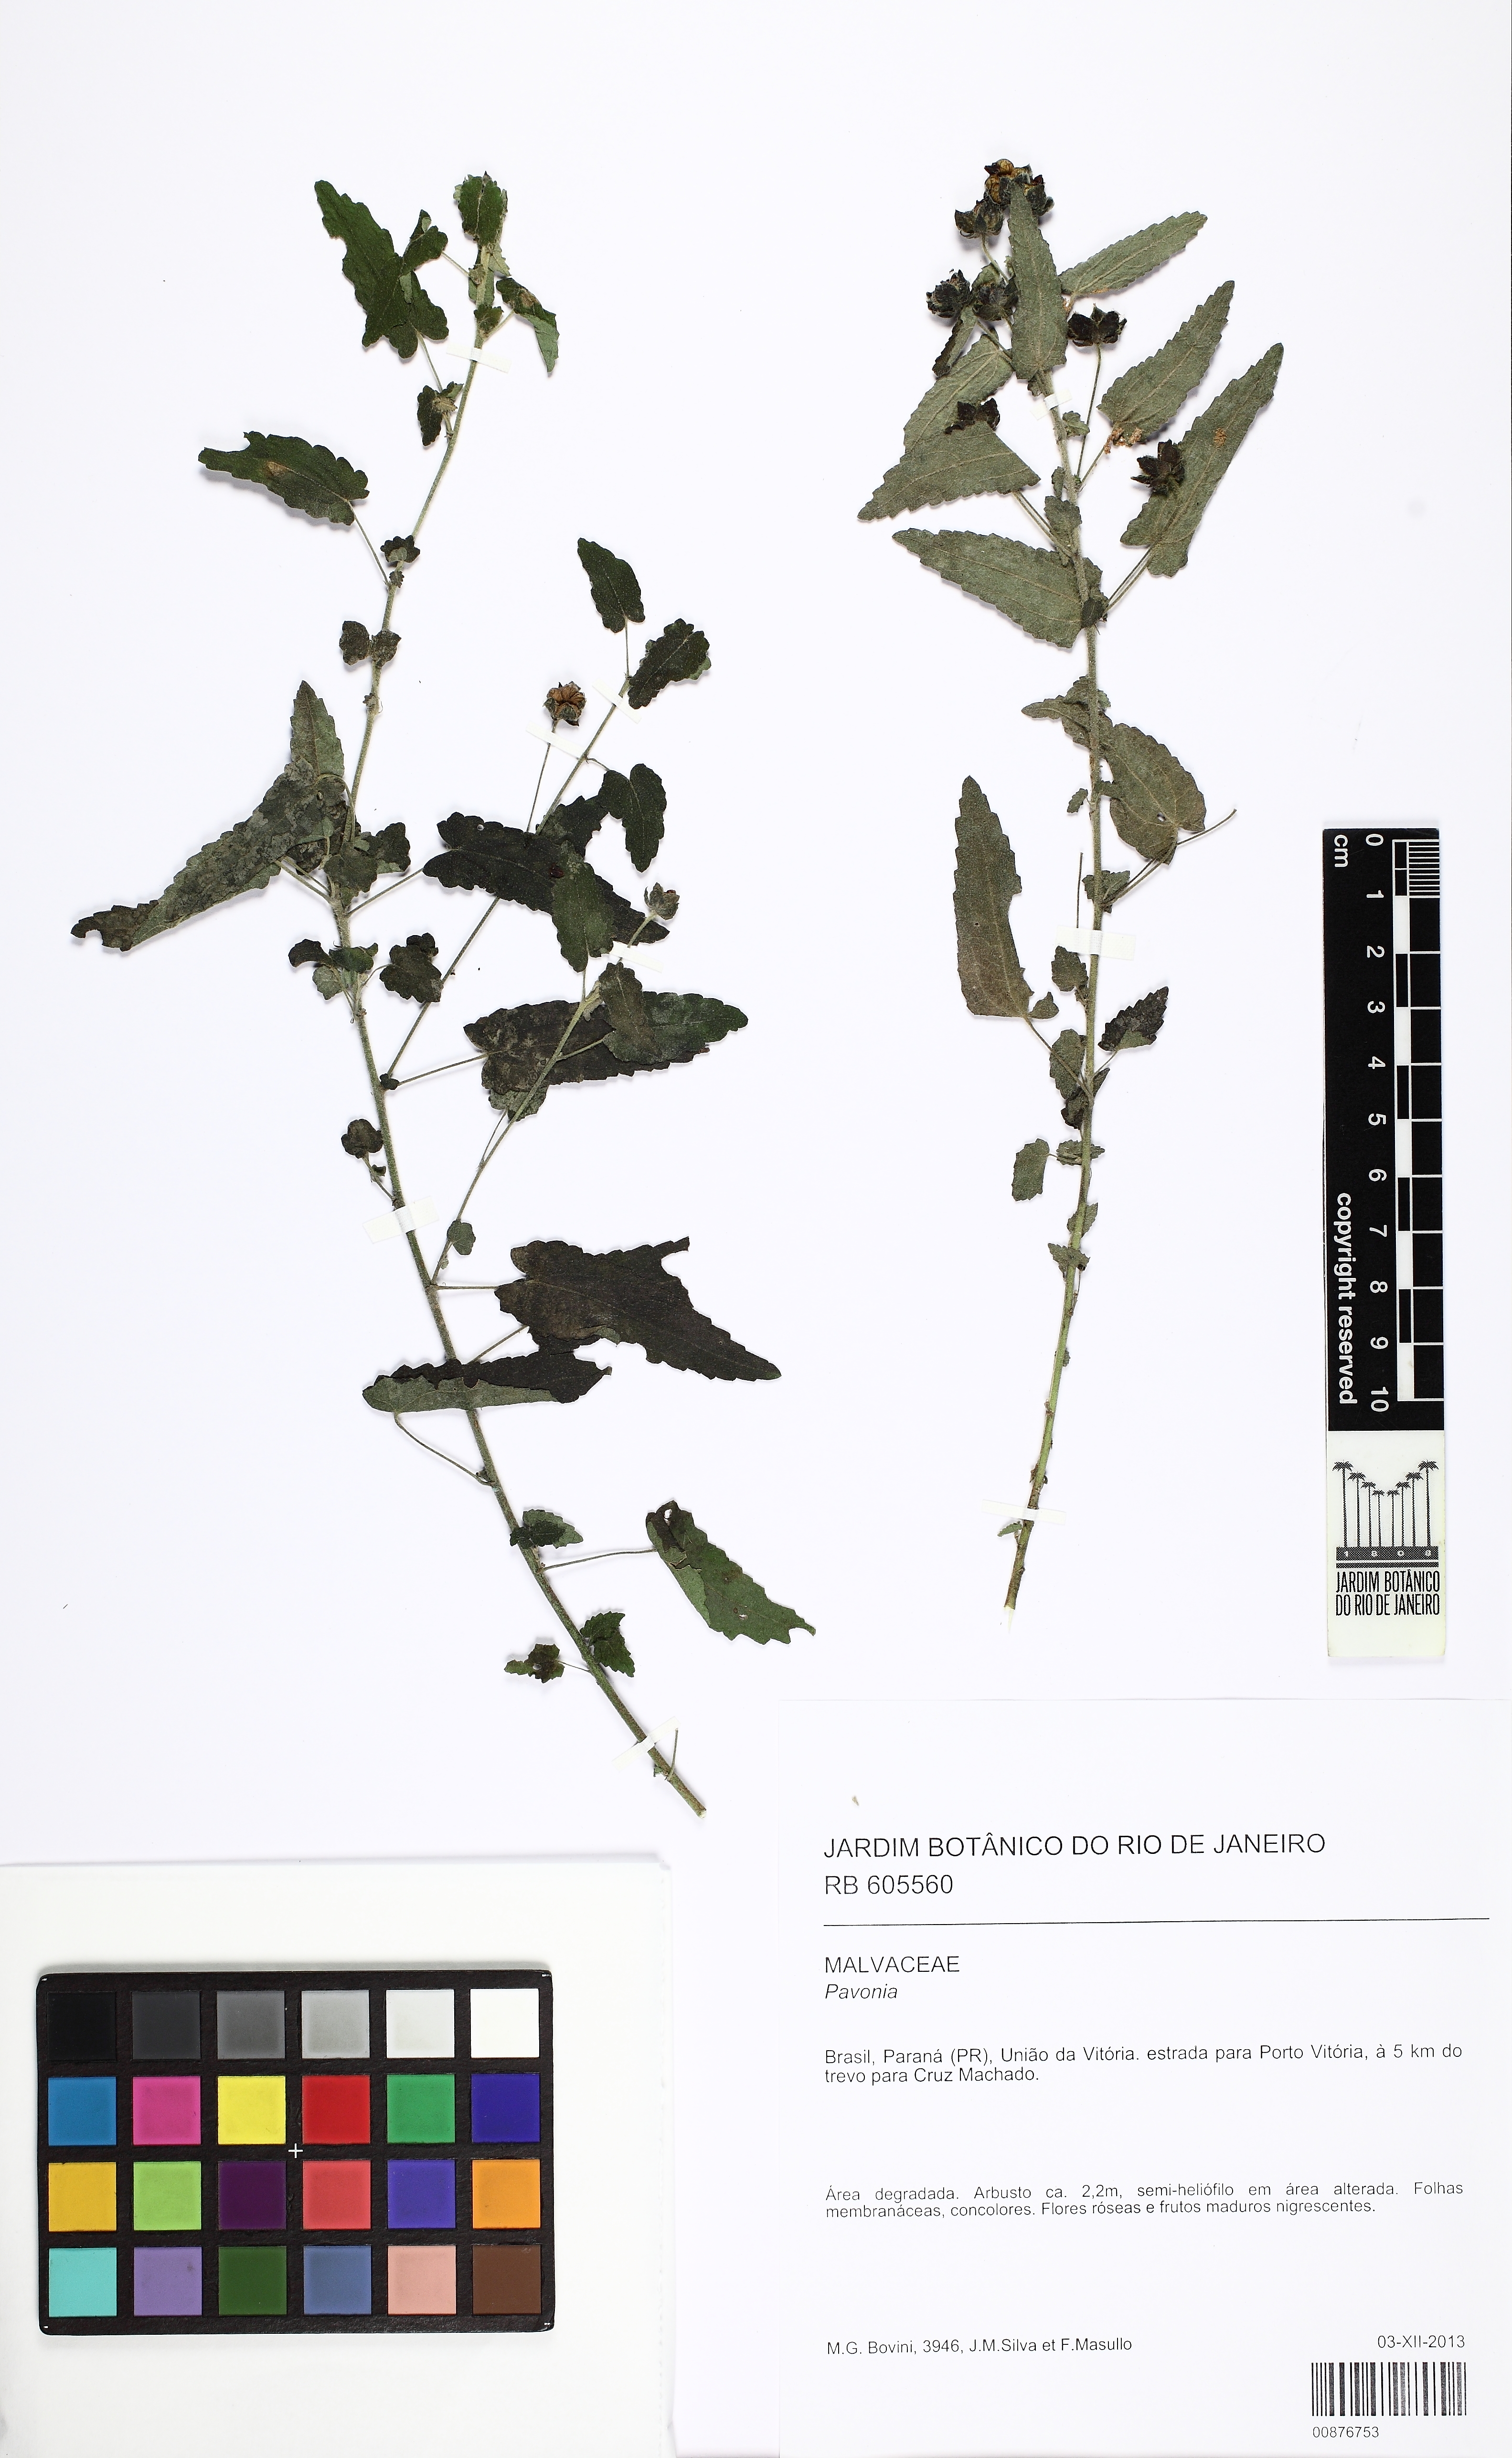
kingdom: Plantae
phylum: Tracheophyta
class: Magnoliopsida
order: Malvales
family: Malvaceae
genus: Pavonia
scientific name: Pavonia
